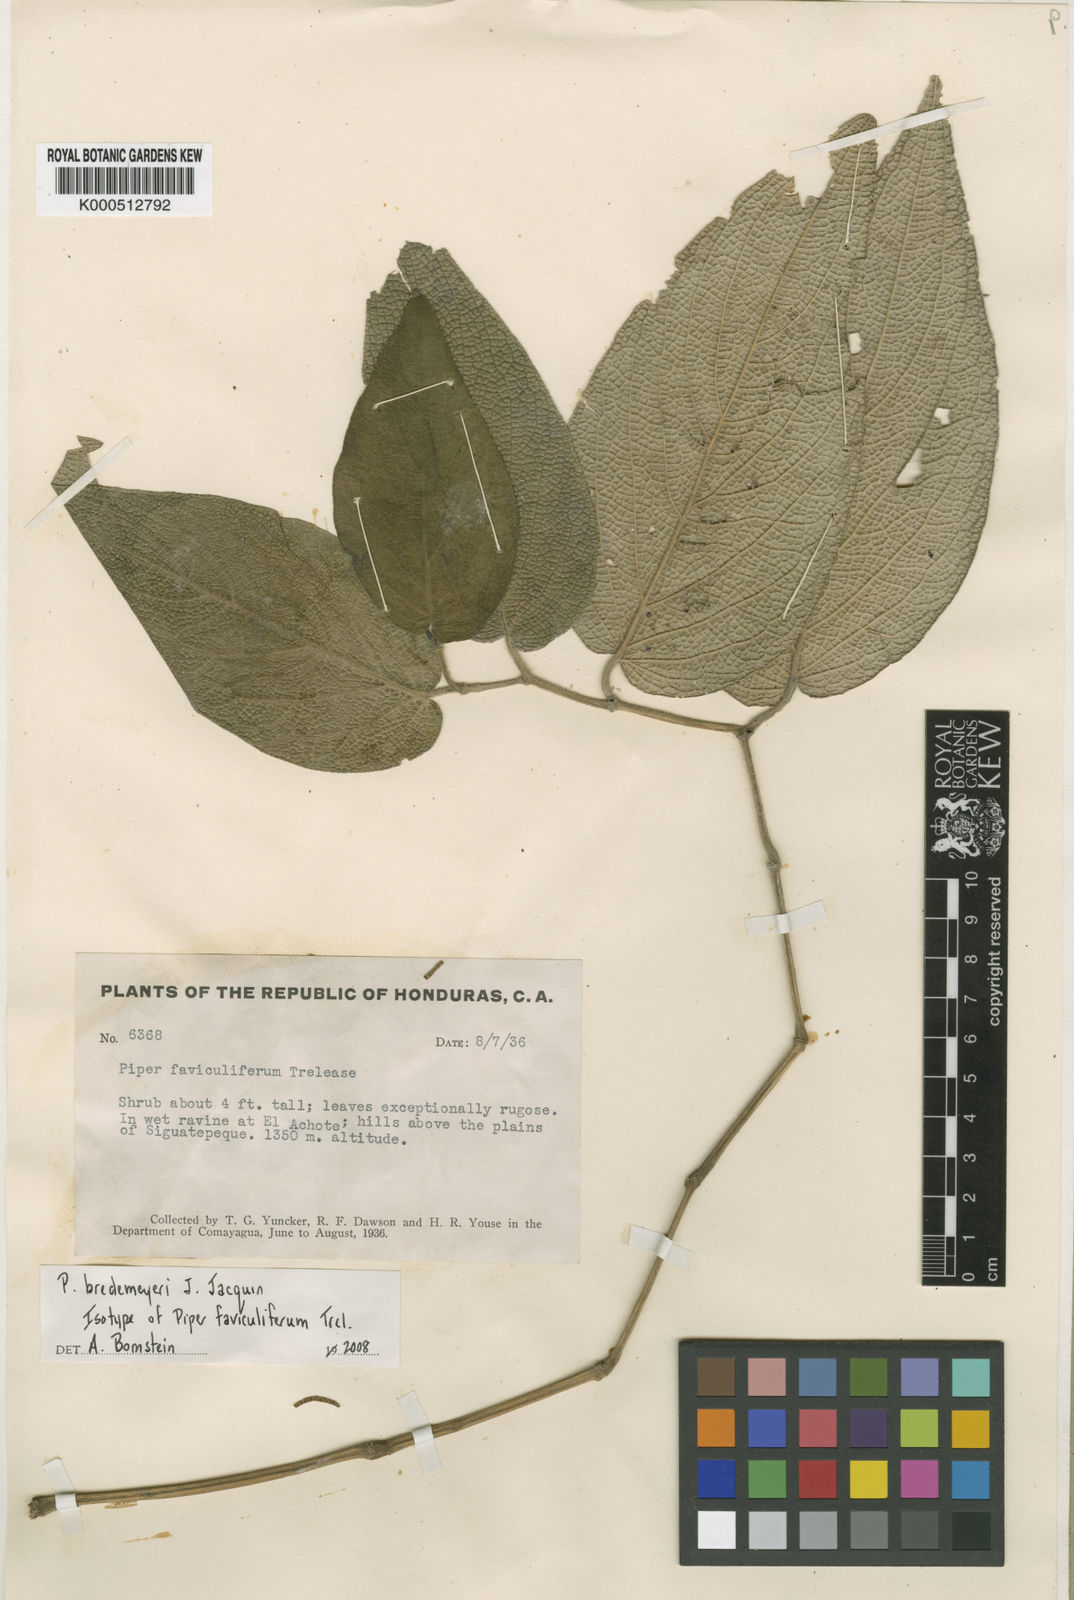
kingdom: Plantae
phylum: Tracheophyta
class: Magnoliopsida
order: Piperales
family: Piperaceae
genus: Piper
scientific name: Piper bredemeyeri
